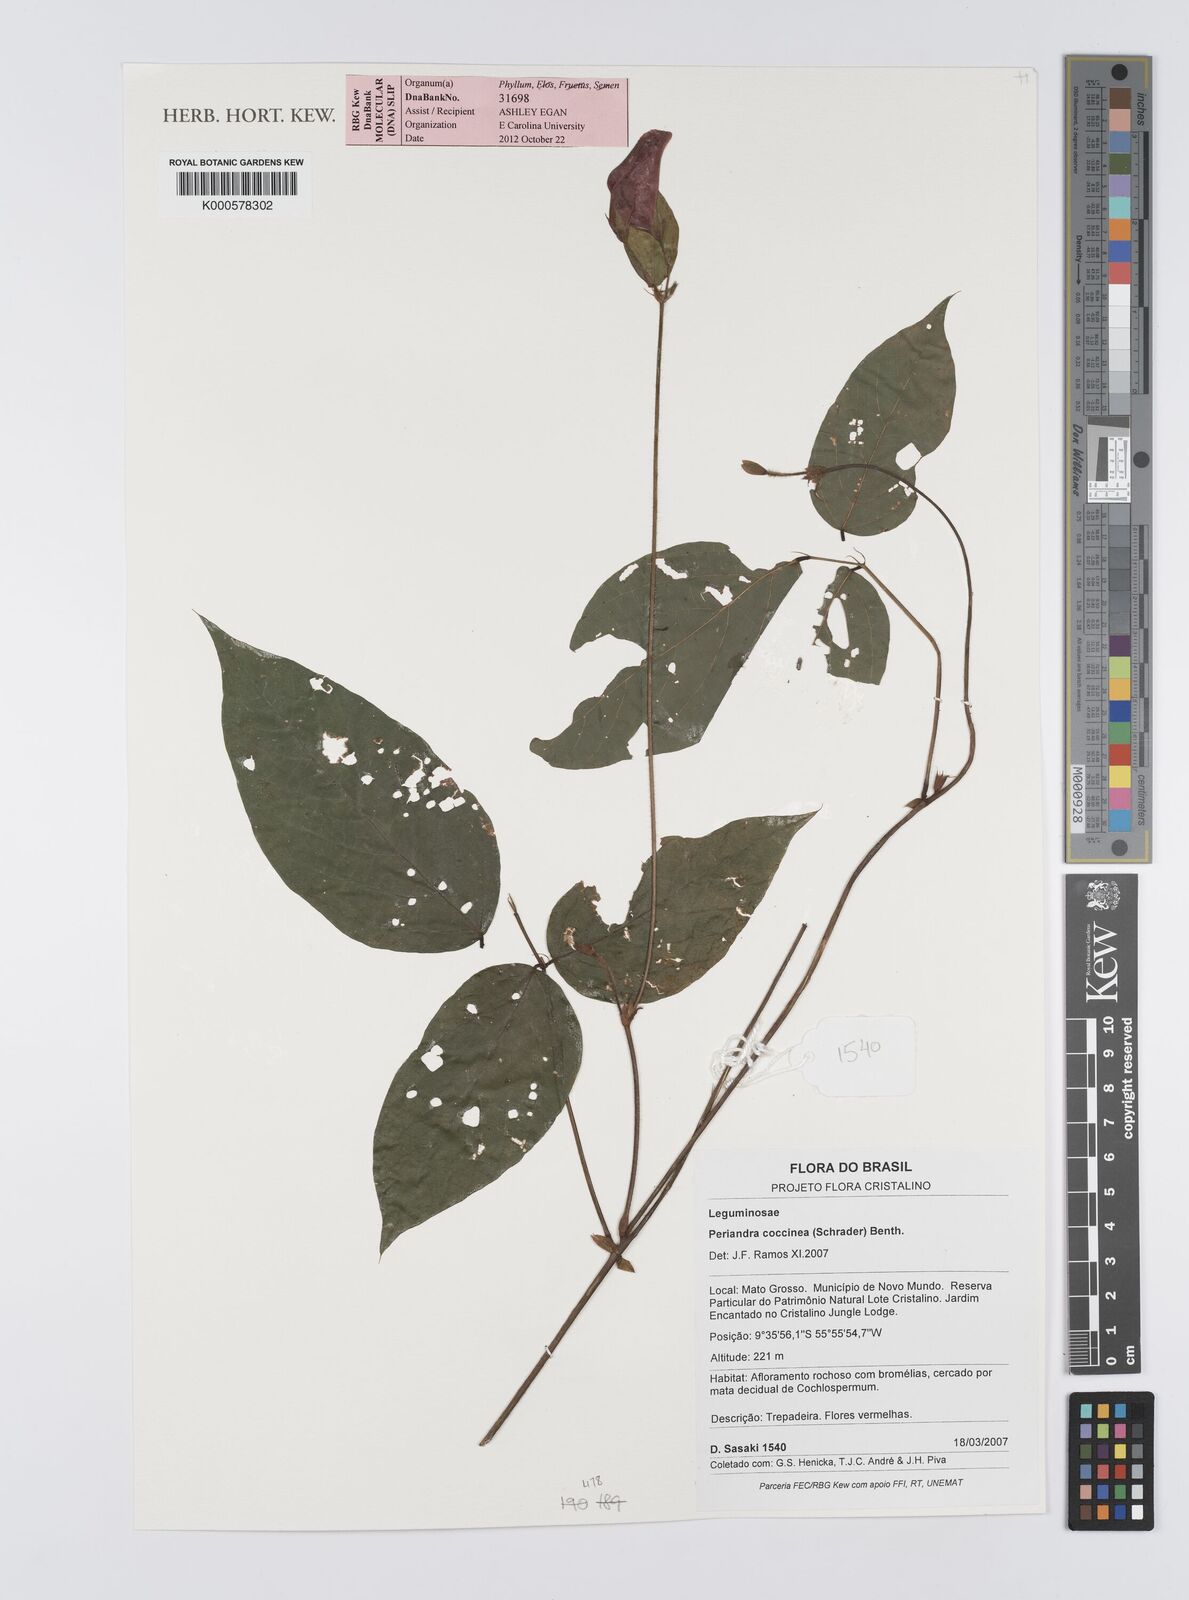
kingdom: Plantae
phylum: Tracheophyta
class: Magnoliopsida
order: Fabales
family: Fabaceae
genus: Periandra
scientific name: Periandra coccinea
